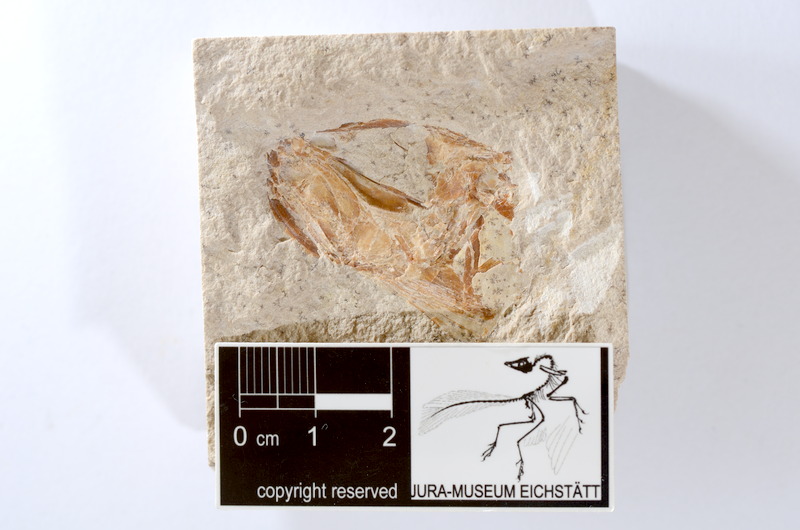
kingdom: Animalia
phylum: Chordata
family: Ascalaboidae
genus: Tharsis
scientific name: Tharsis dubius
